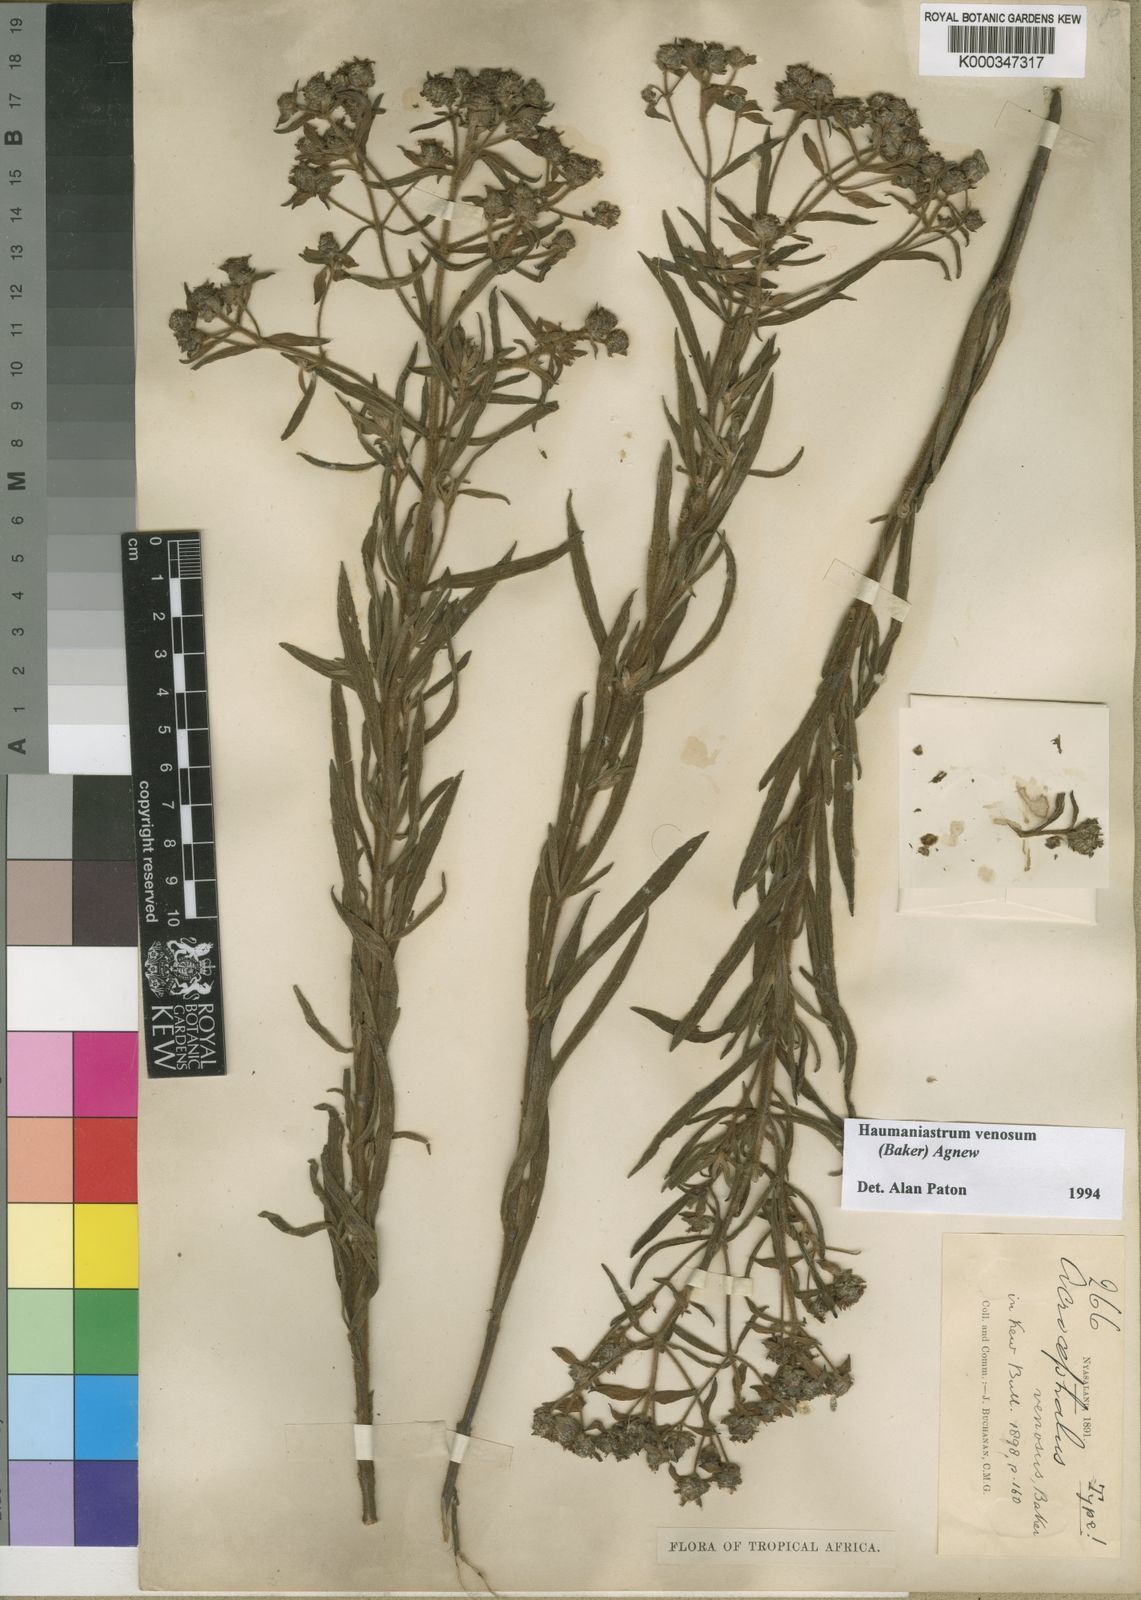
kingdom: Plantae
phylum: Tracheophyta
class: Magnoliopsida
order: Lamiales
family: Lamiaceae
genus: Haumaniastrum
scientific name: Haumaniastrum venosum
